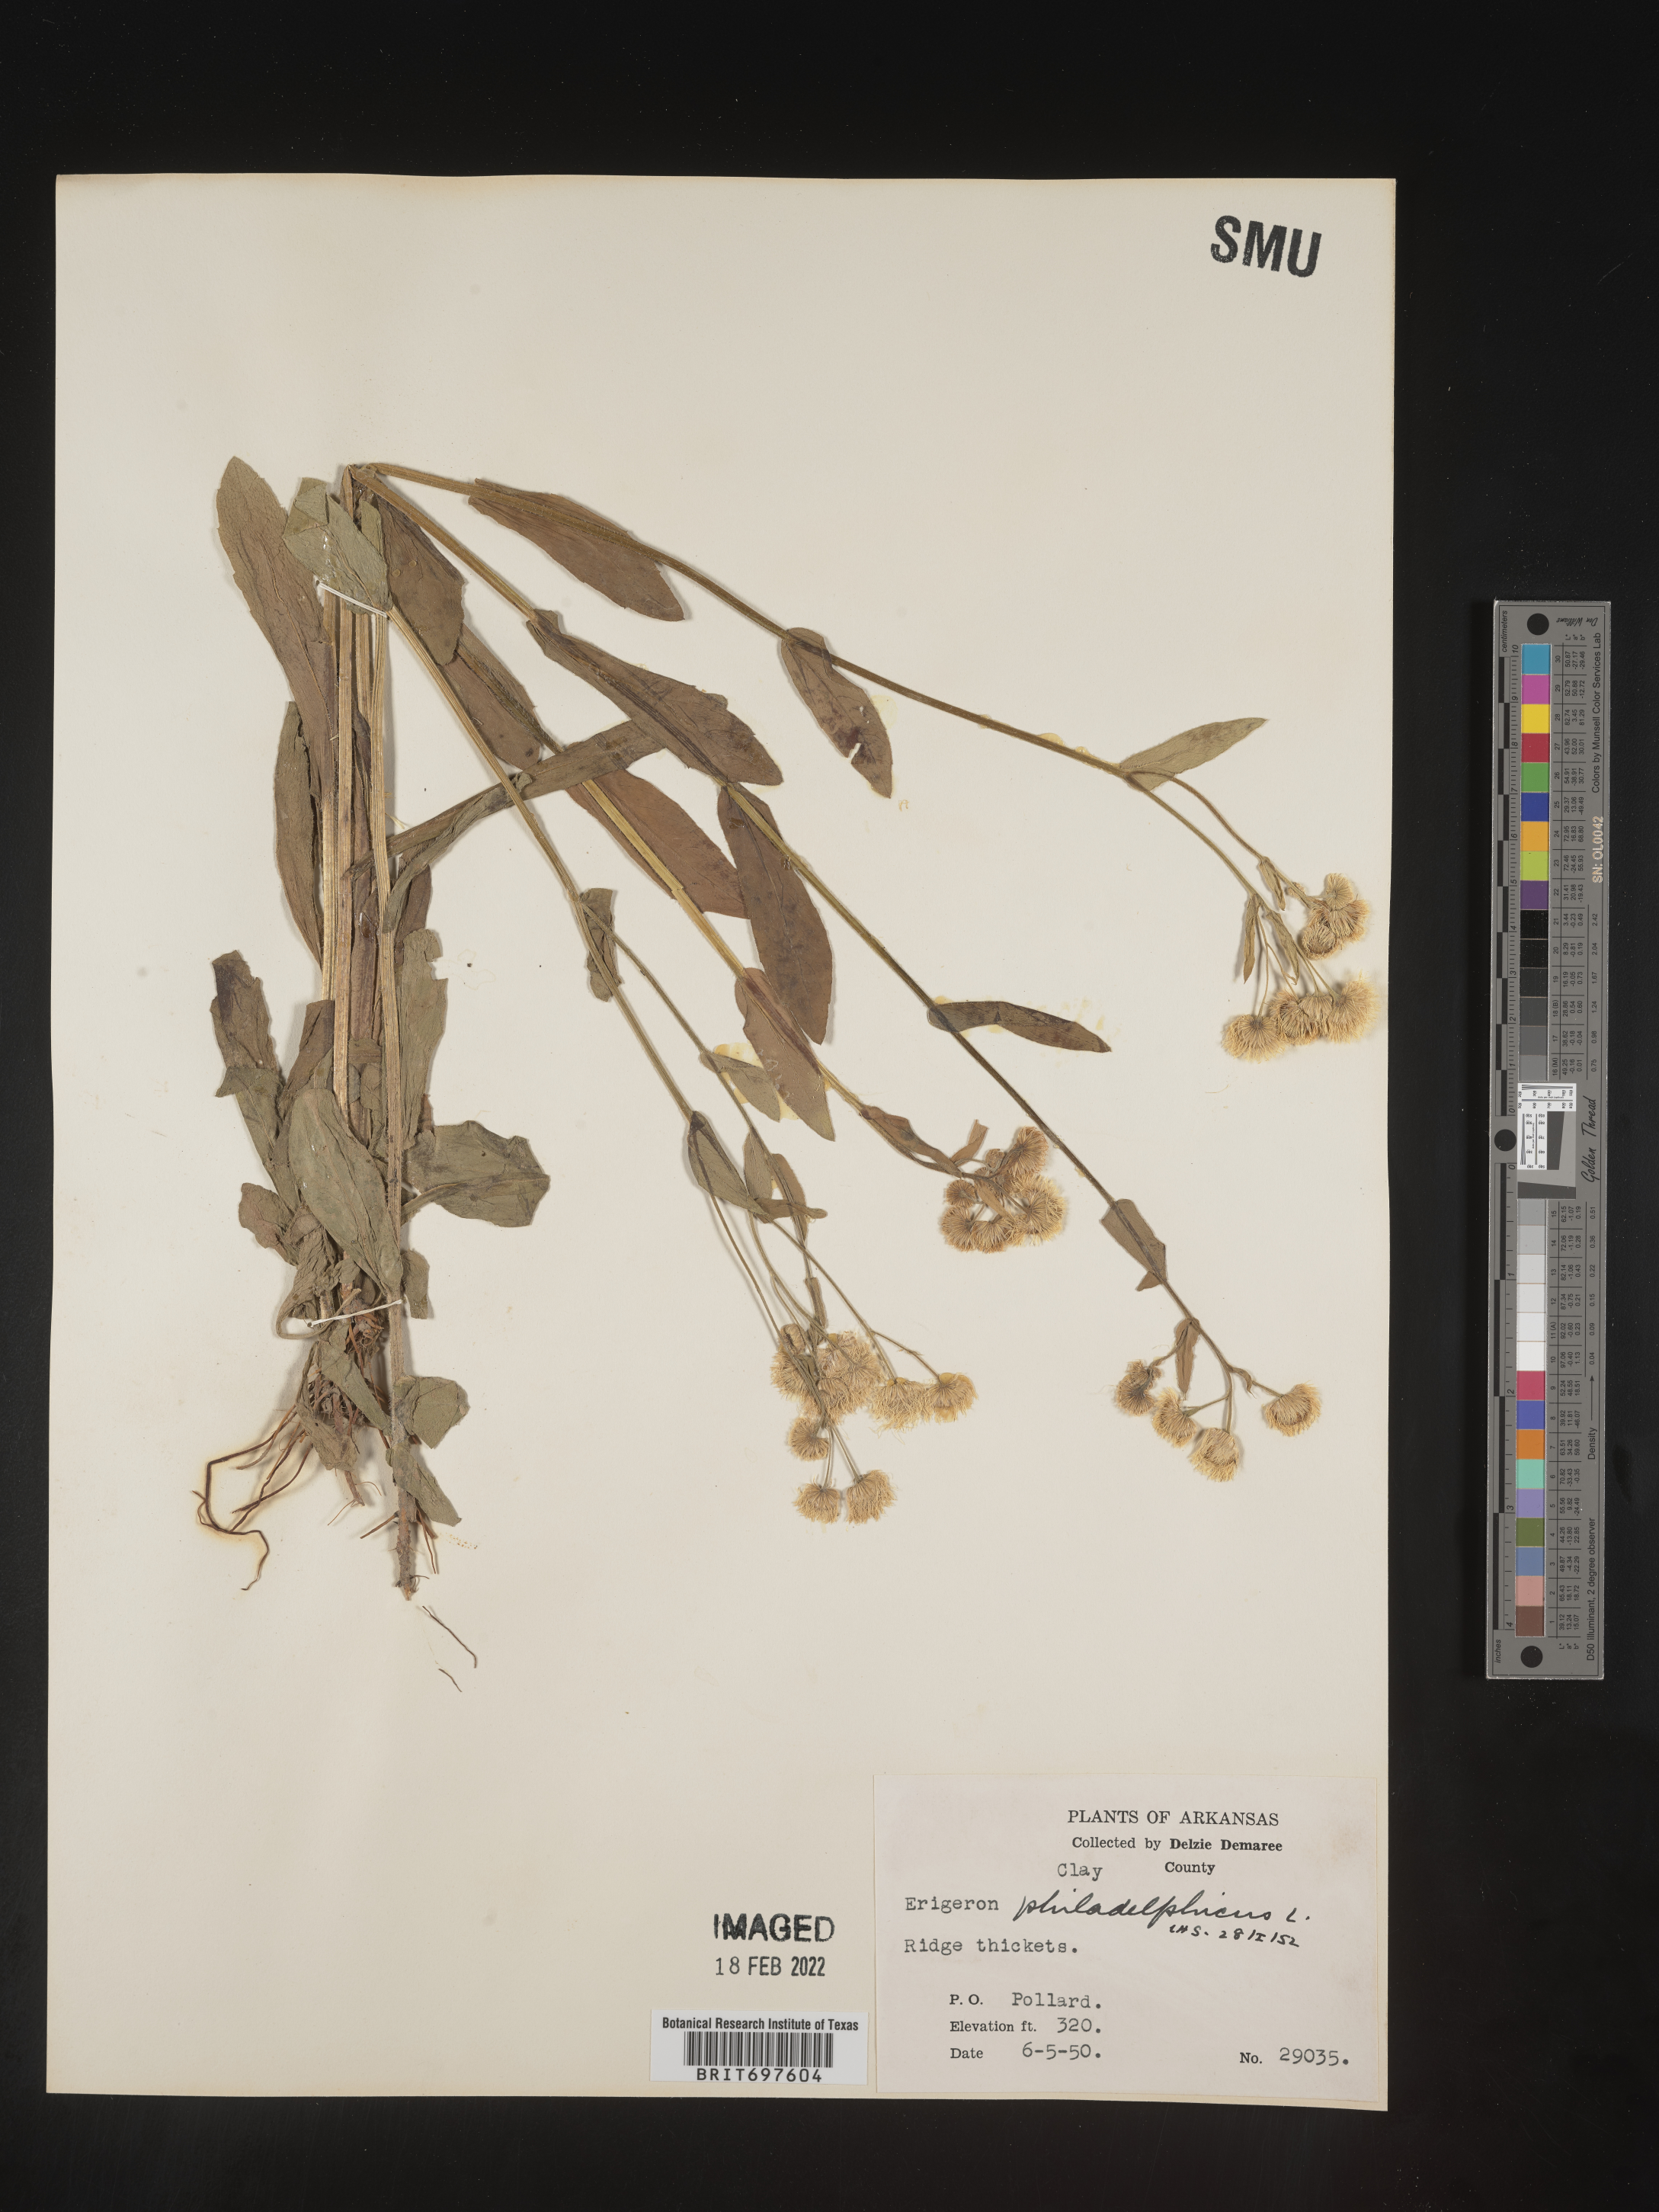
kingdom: Plantae
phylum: Tracheophyta
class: Magnoliopsida
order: Asterales
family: Asteraceae
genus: Erigeron
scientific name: Erigeron philadelphicus
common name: Robin's-plantain
